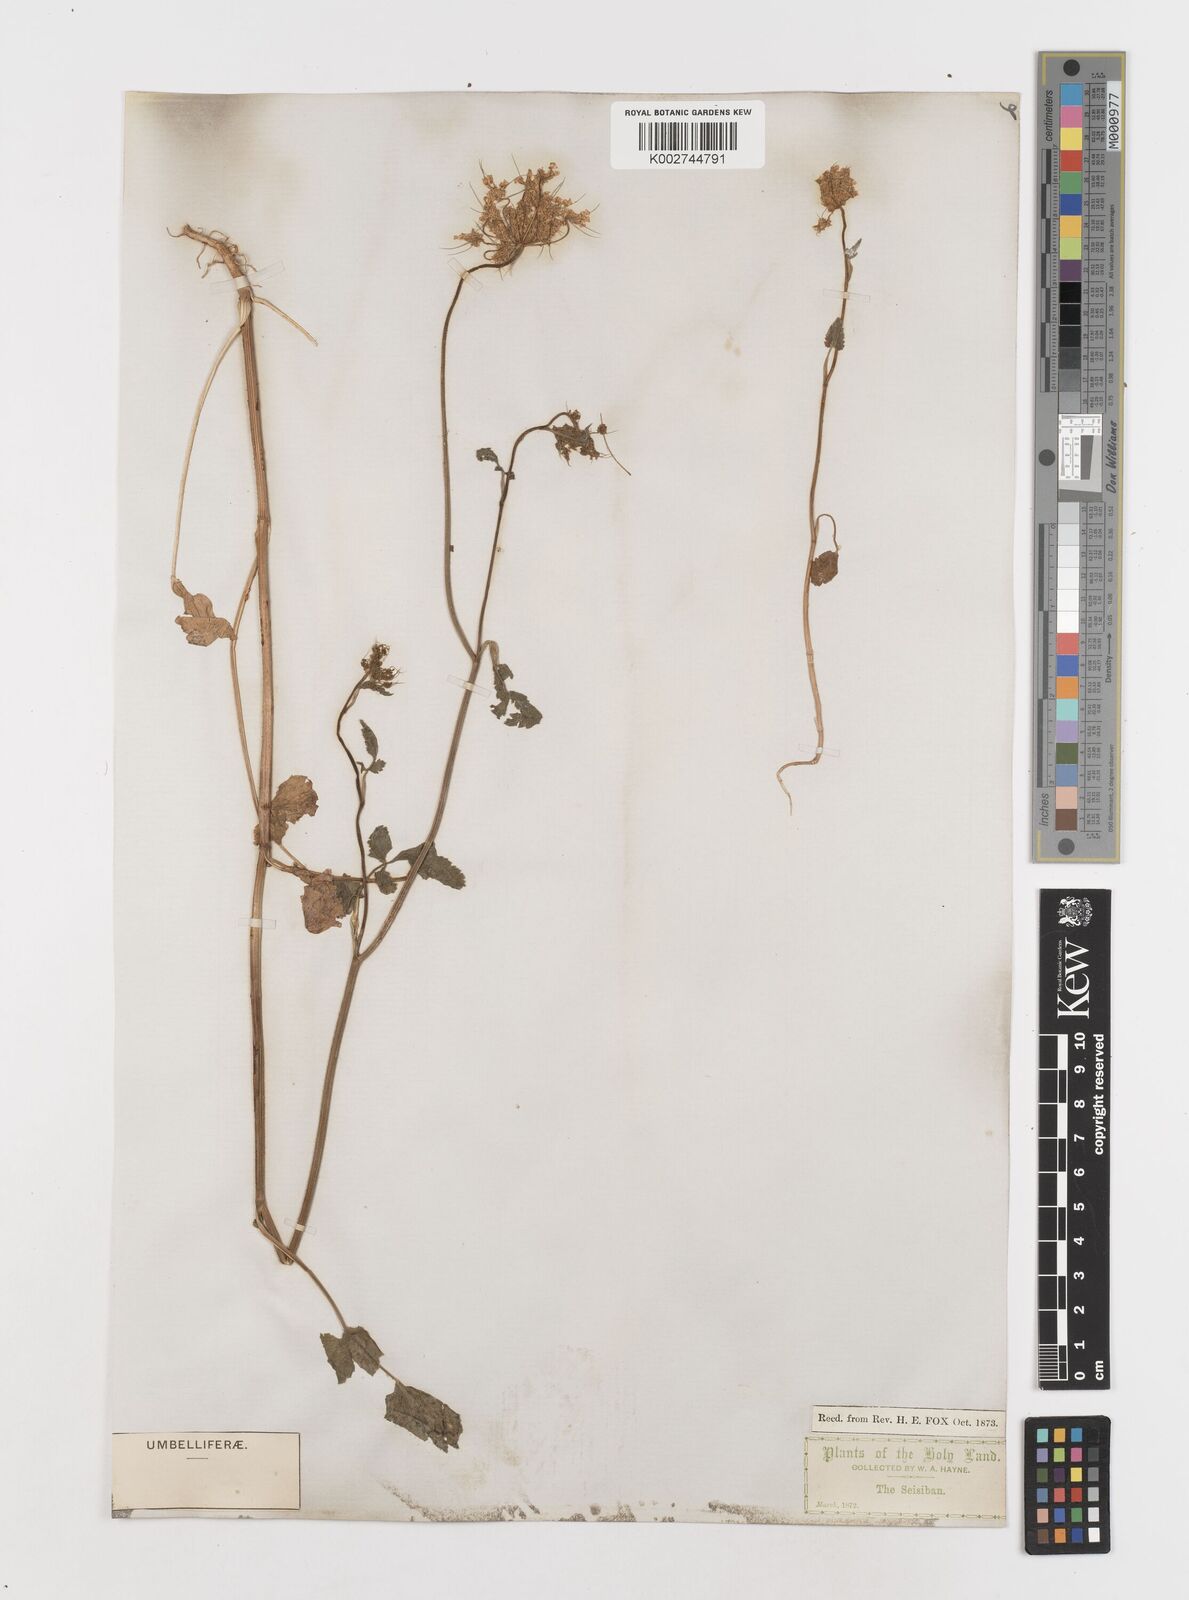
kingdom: Plantae
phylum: Tracheophyta
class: Magnoliopsida
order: Apiales
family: Apiaceae
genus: Ainsworthia
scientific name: Ainsworthia trachycarpa
